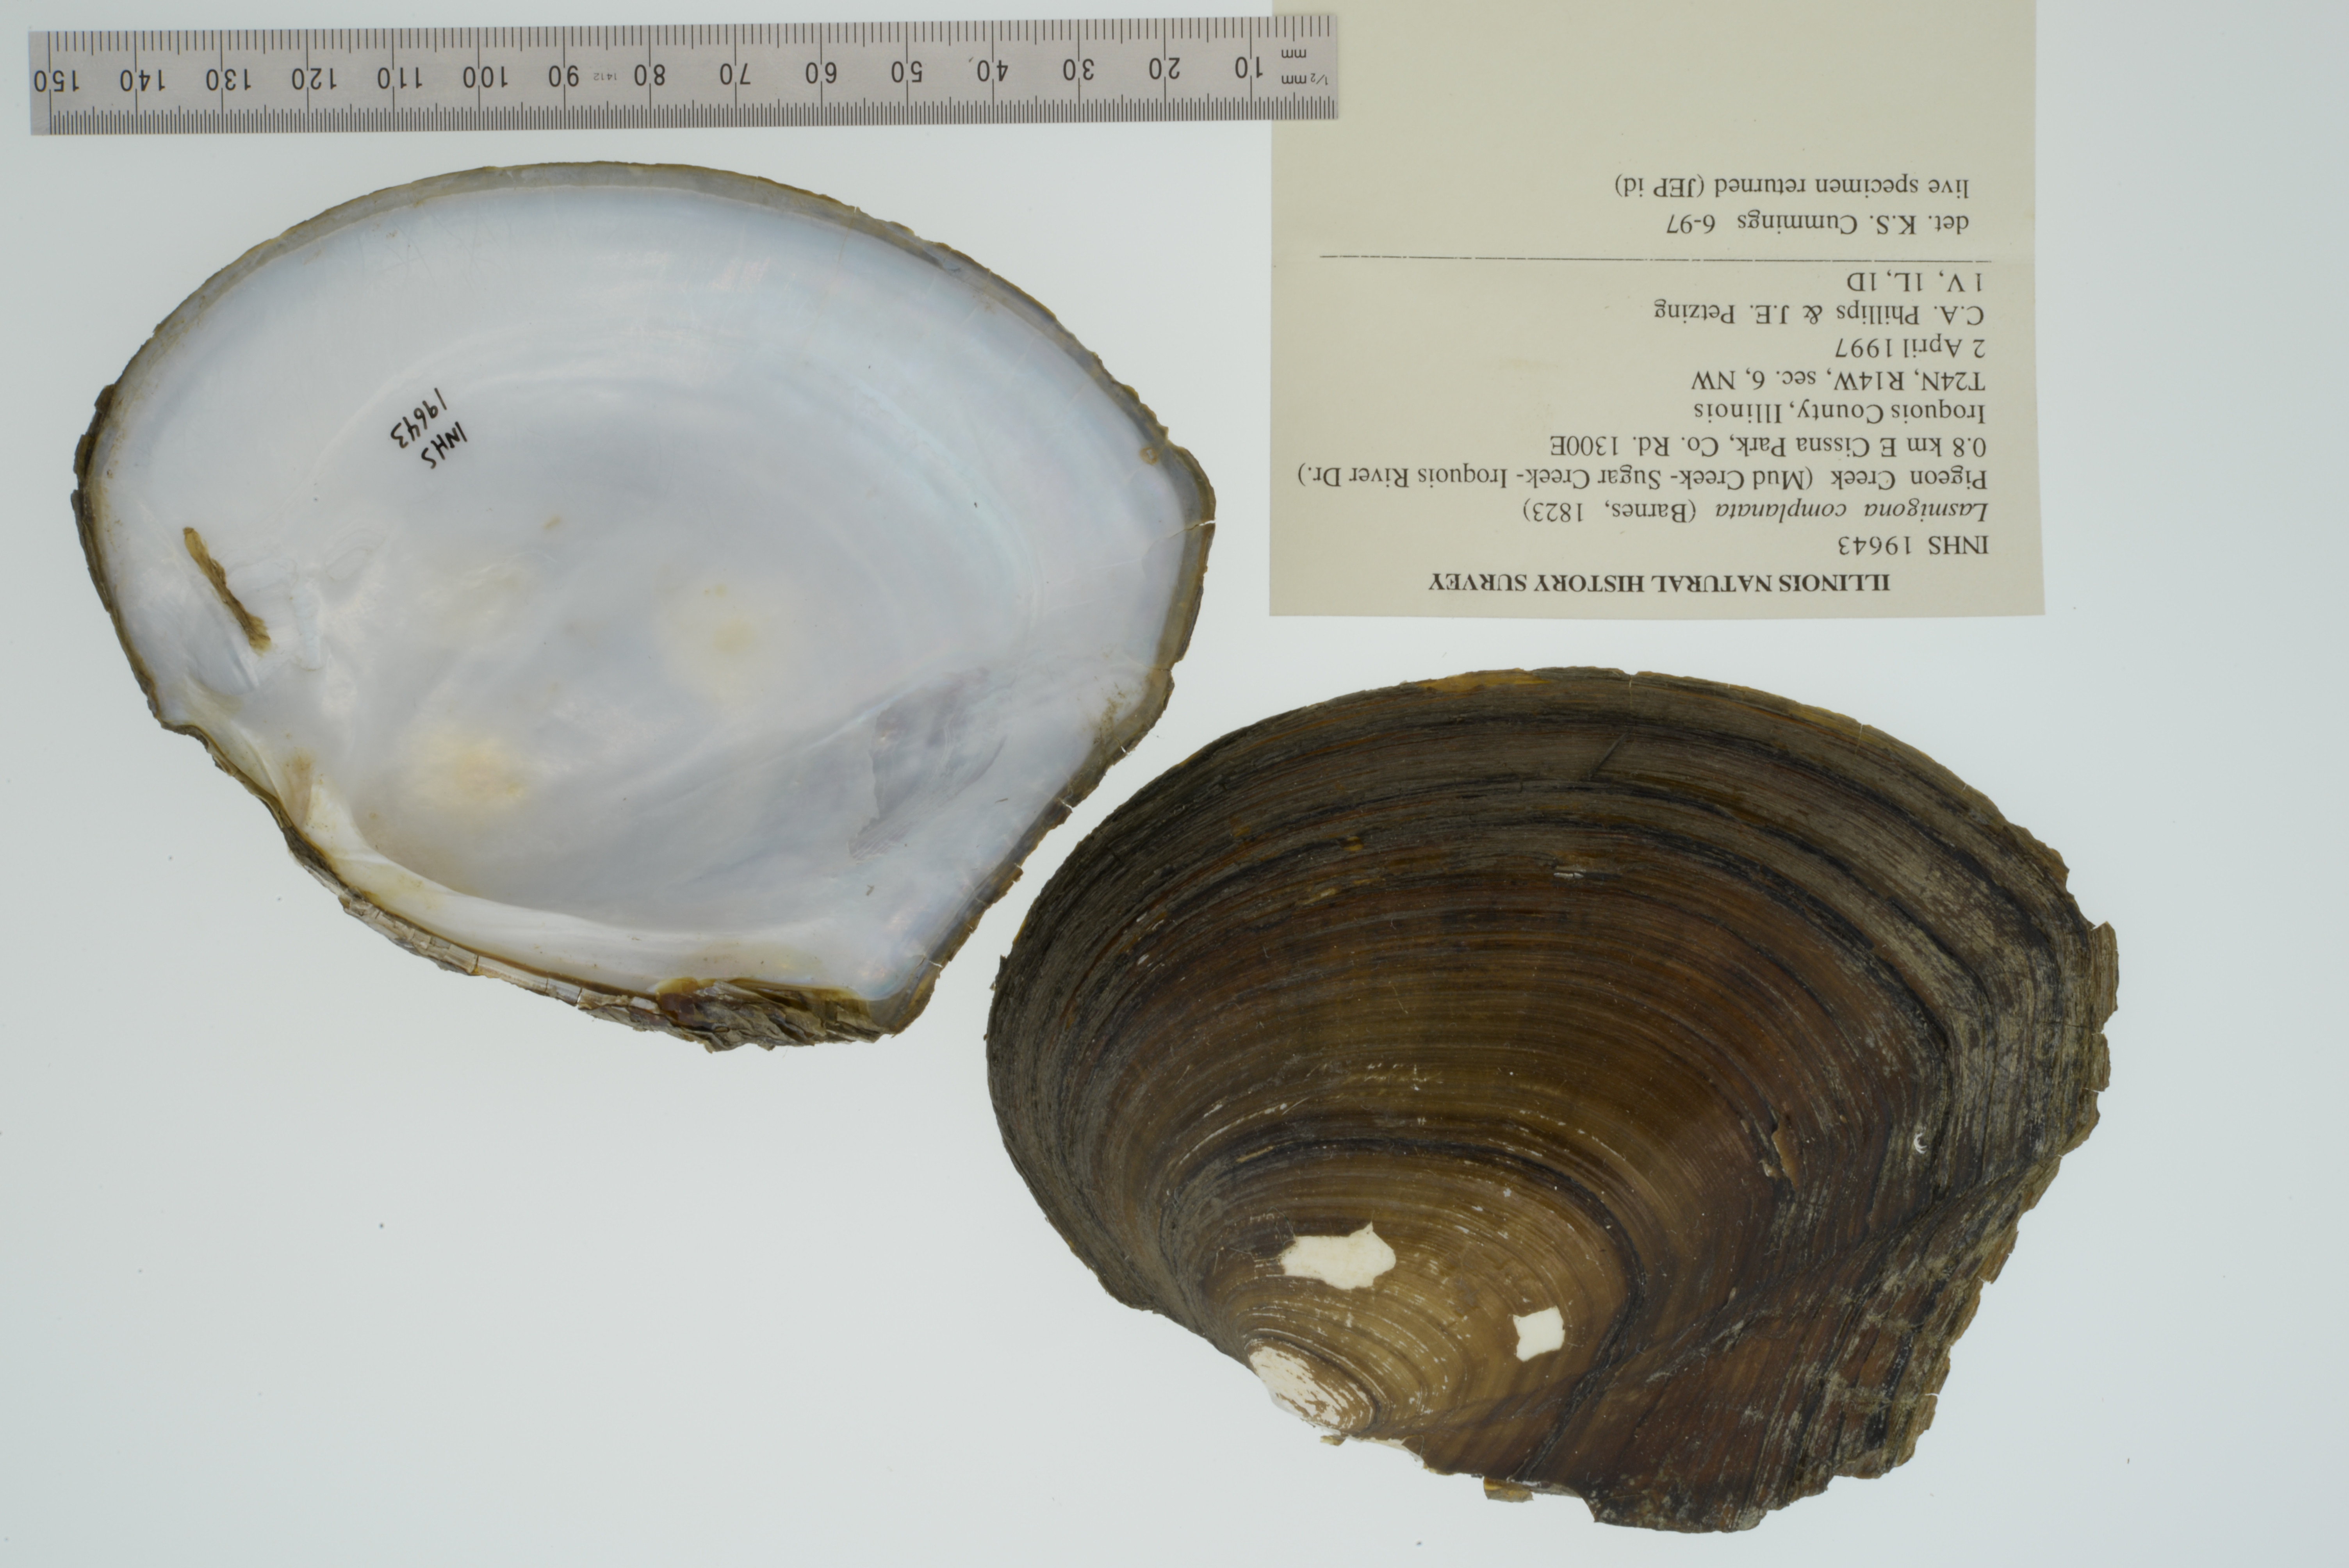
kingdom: Animalia
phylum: Mollusca
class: Bivalvia
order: Unionida
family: Unionidae
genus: Lasmigona
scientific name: Lasmigona complanata
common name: White heelsplitter
